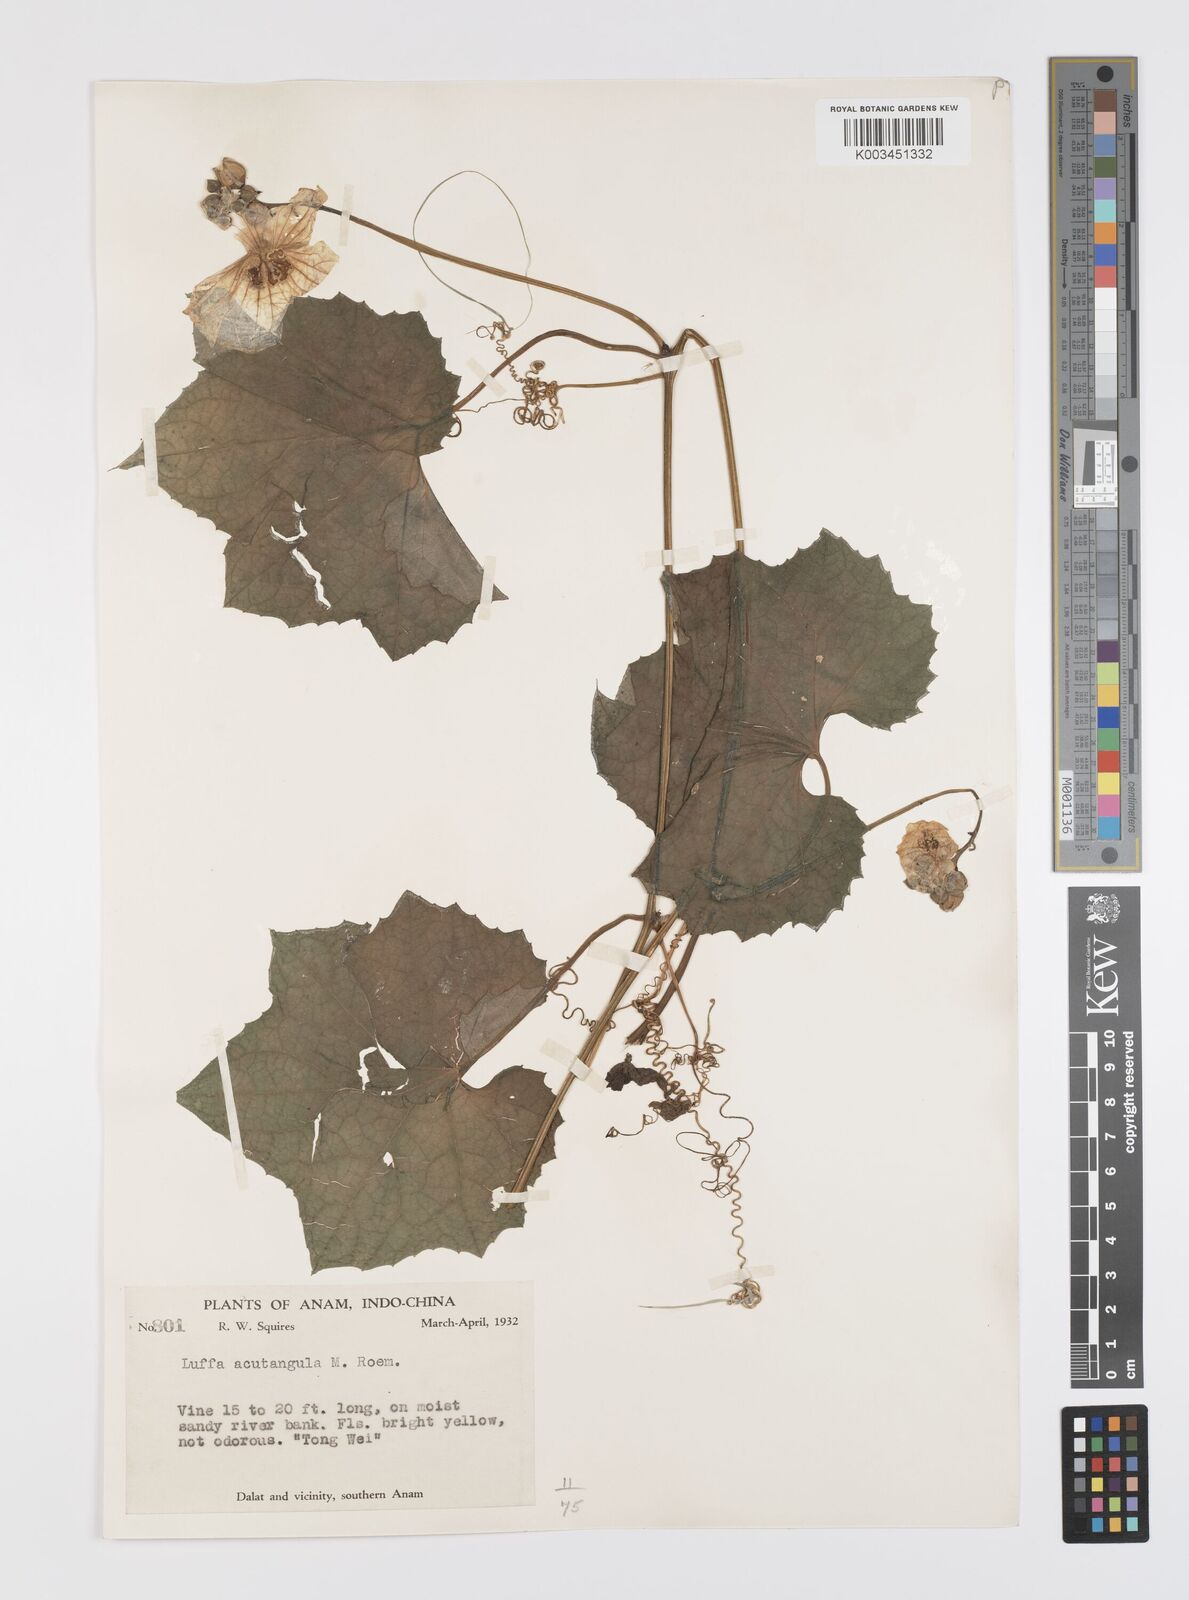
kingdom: Plantae
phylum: Tracheophyta
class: Magnoliopsida
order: Cucurbitales
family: Cucurbitaceae
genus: Luffa
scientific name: Luffa acutangula
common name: Sinkwa towelsponge
